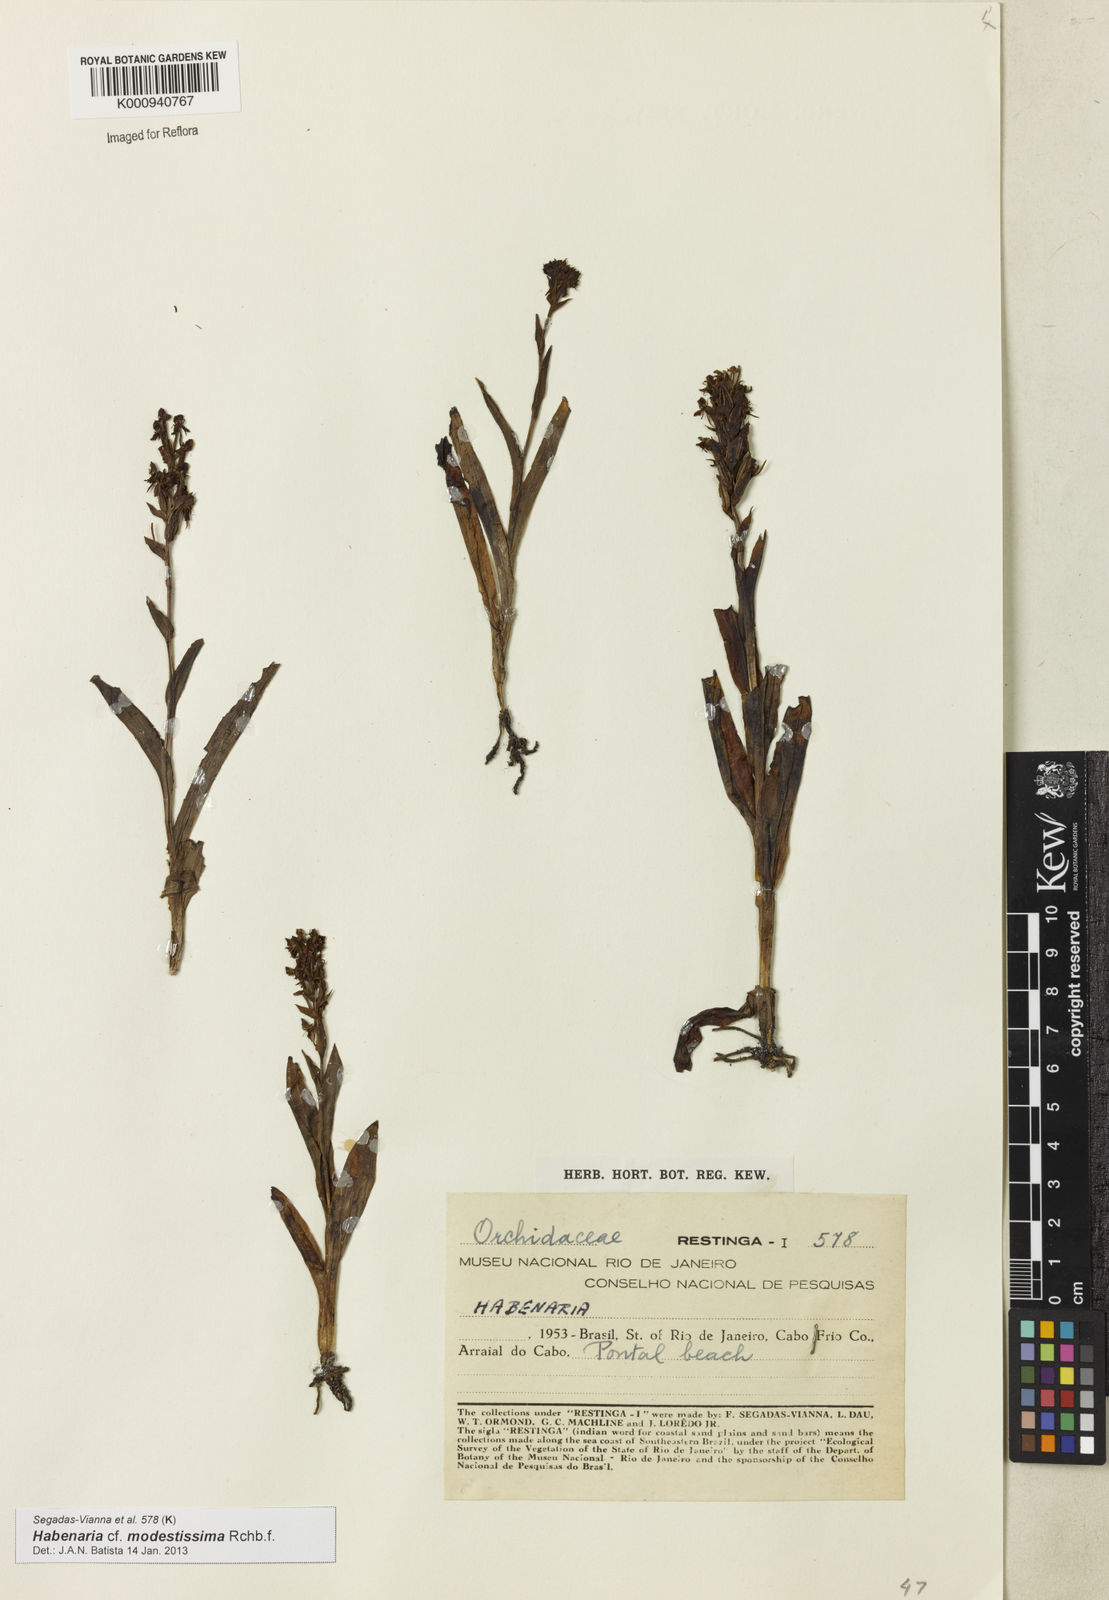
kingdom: Plantae
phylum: Tracheophyta
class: Liliopsida
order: Asparagales
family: Orchidaceae
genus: Habenaria
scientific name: Habenaria modestissima
